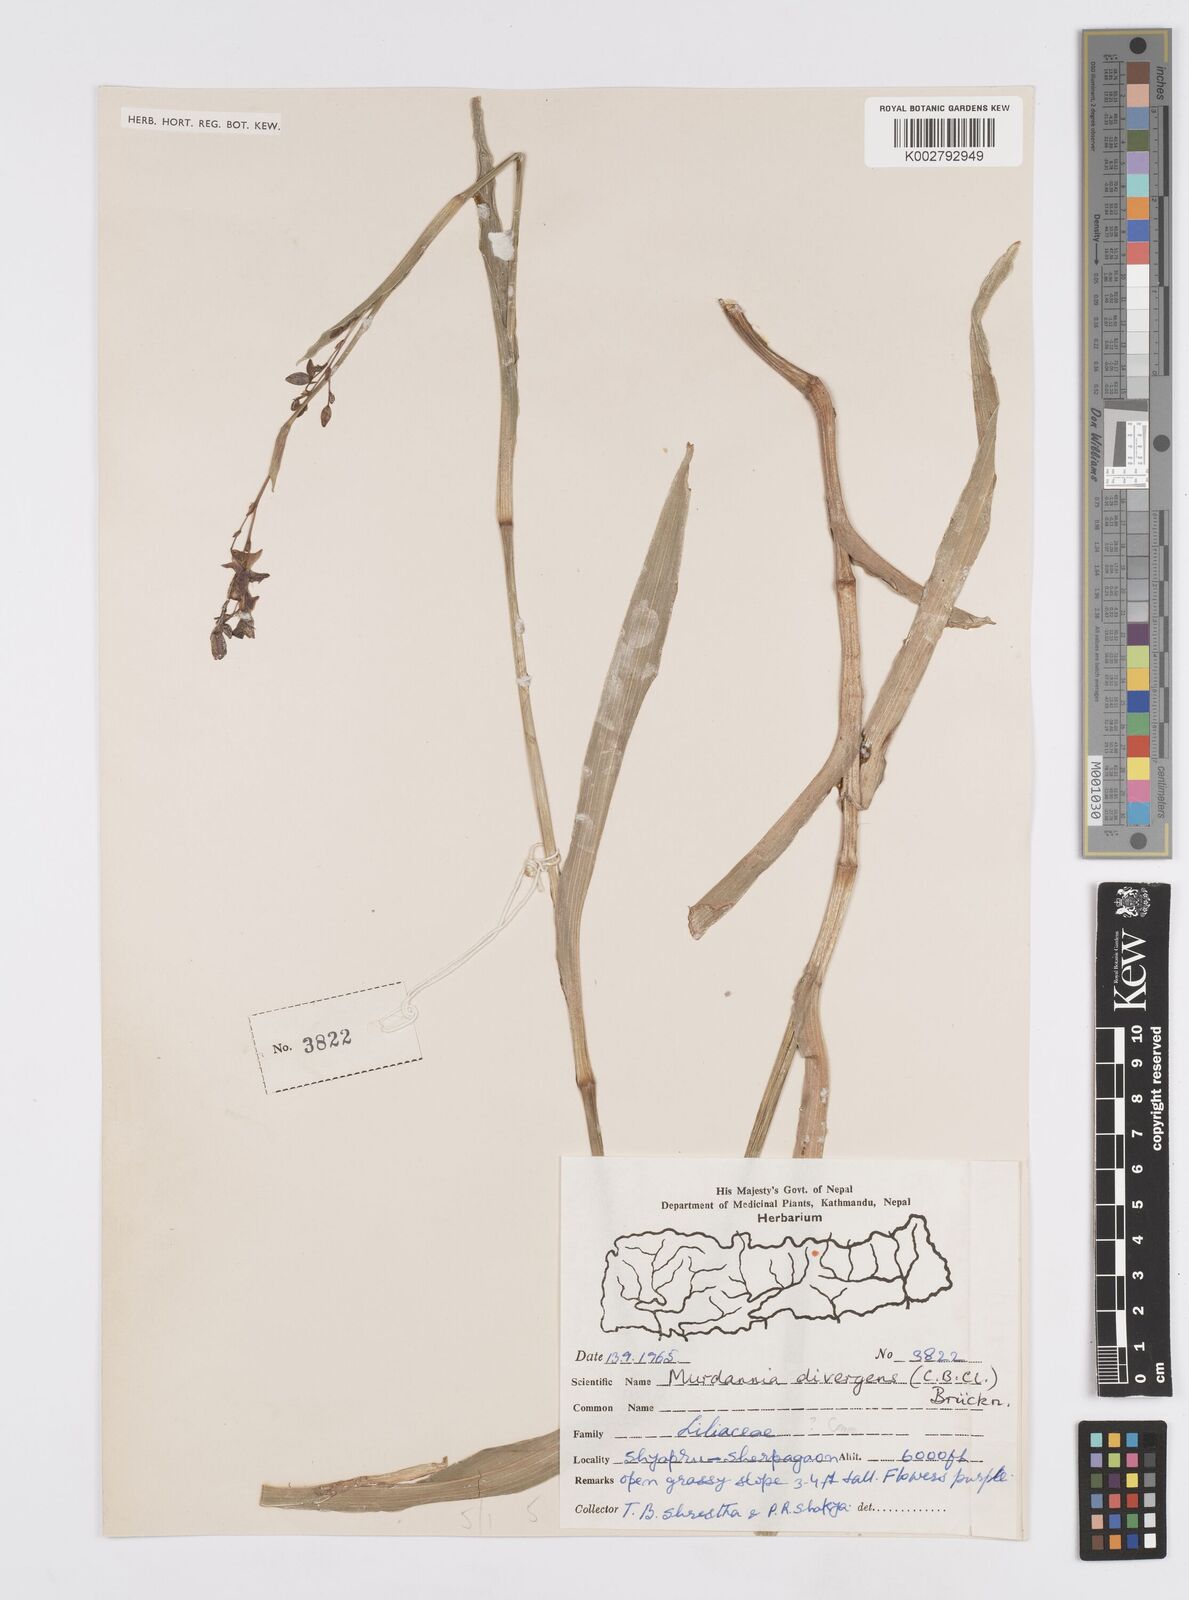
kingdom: Plantae
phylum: Tracheophyta
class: Liliopsida
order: Commelinales
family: Commelinaceae
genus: Murdannia
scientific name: Murdannia divergens
